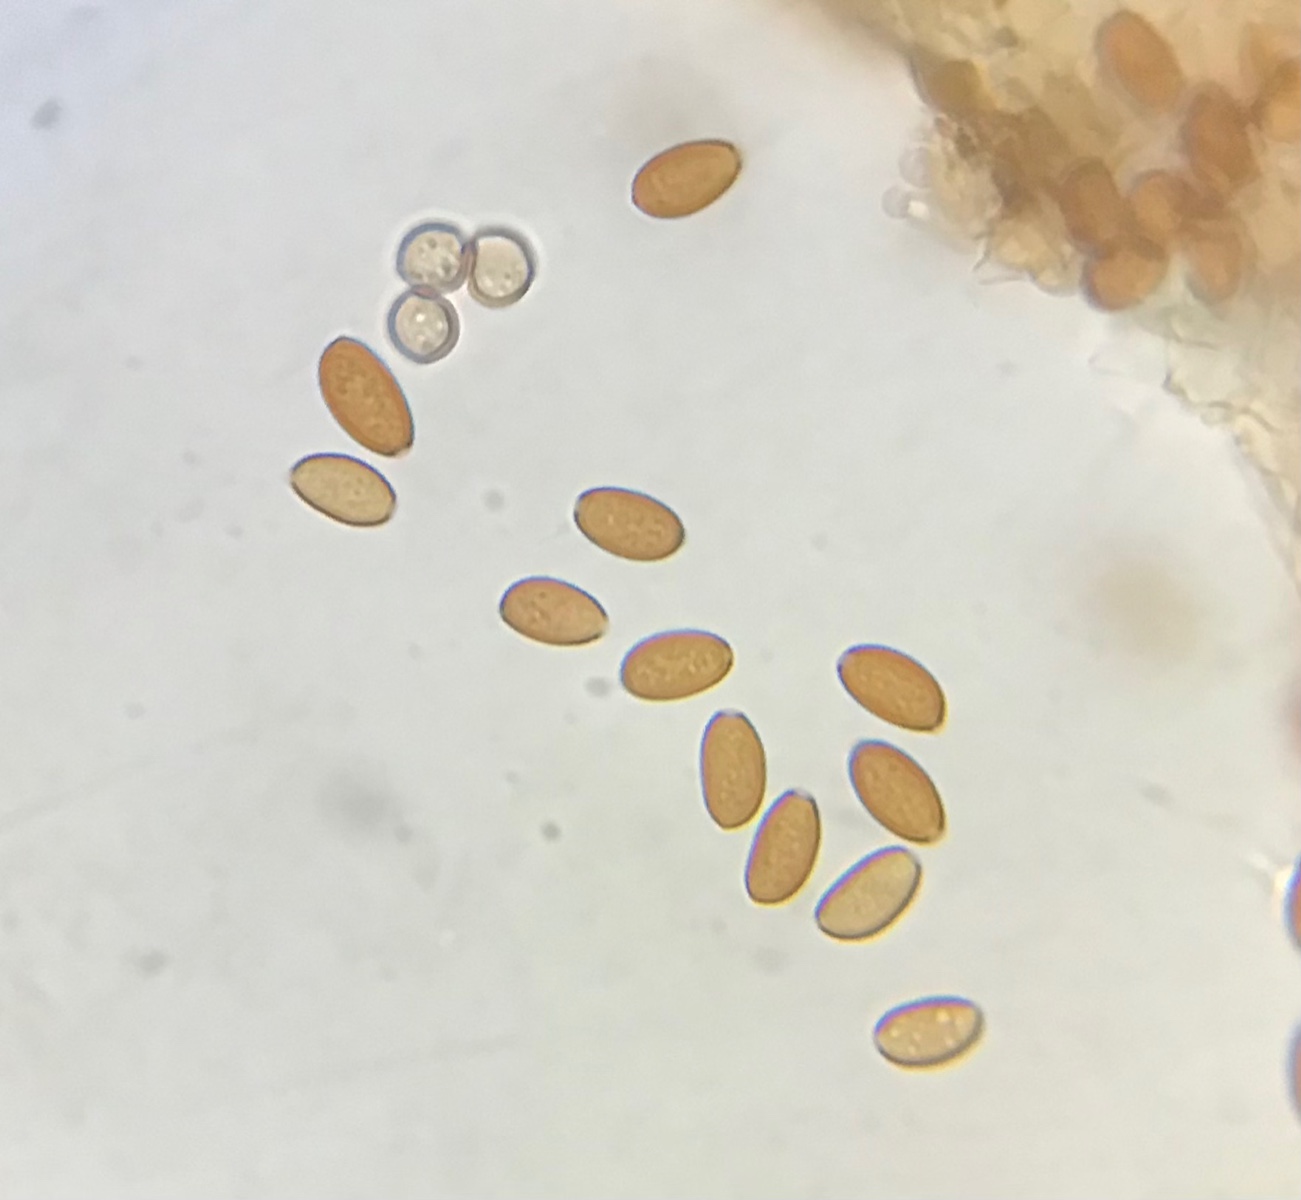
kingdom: Fungi
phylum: Basidiomycota
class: Agaricomycetes
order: Agaricales
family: Bolbitiaceae
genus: Conocybe
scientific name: Conocybe
